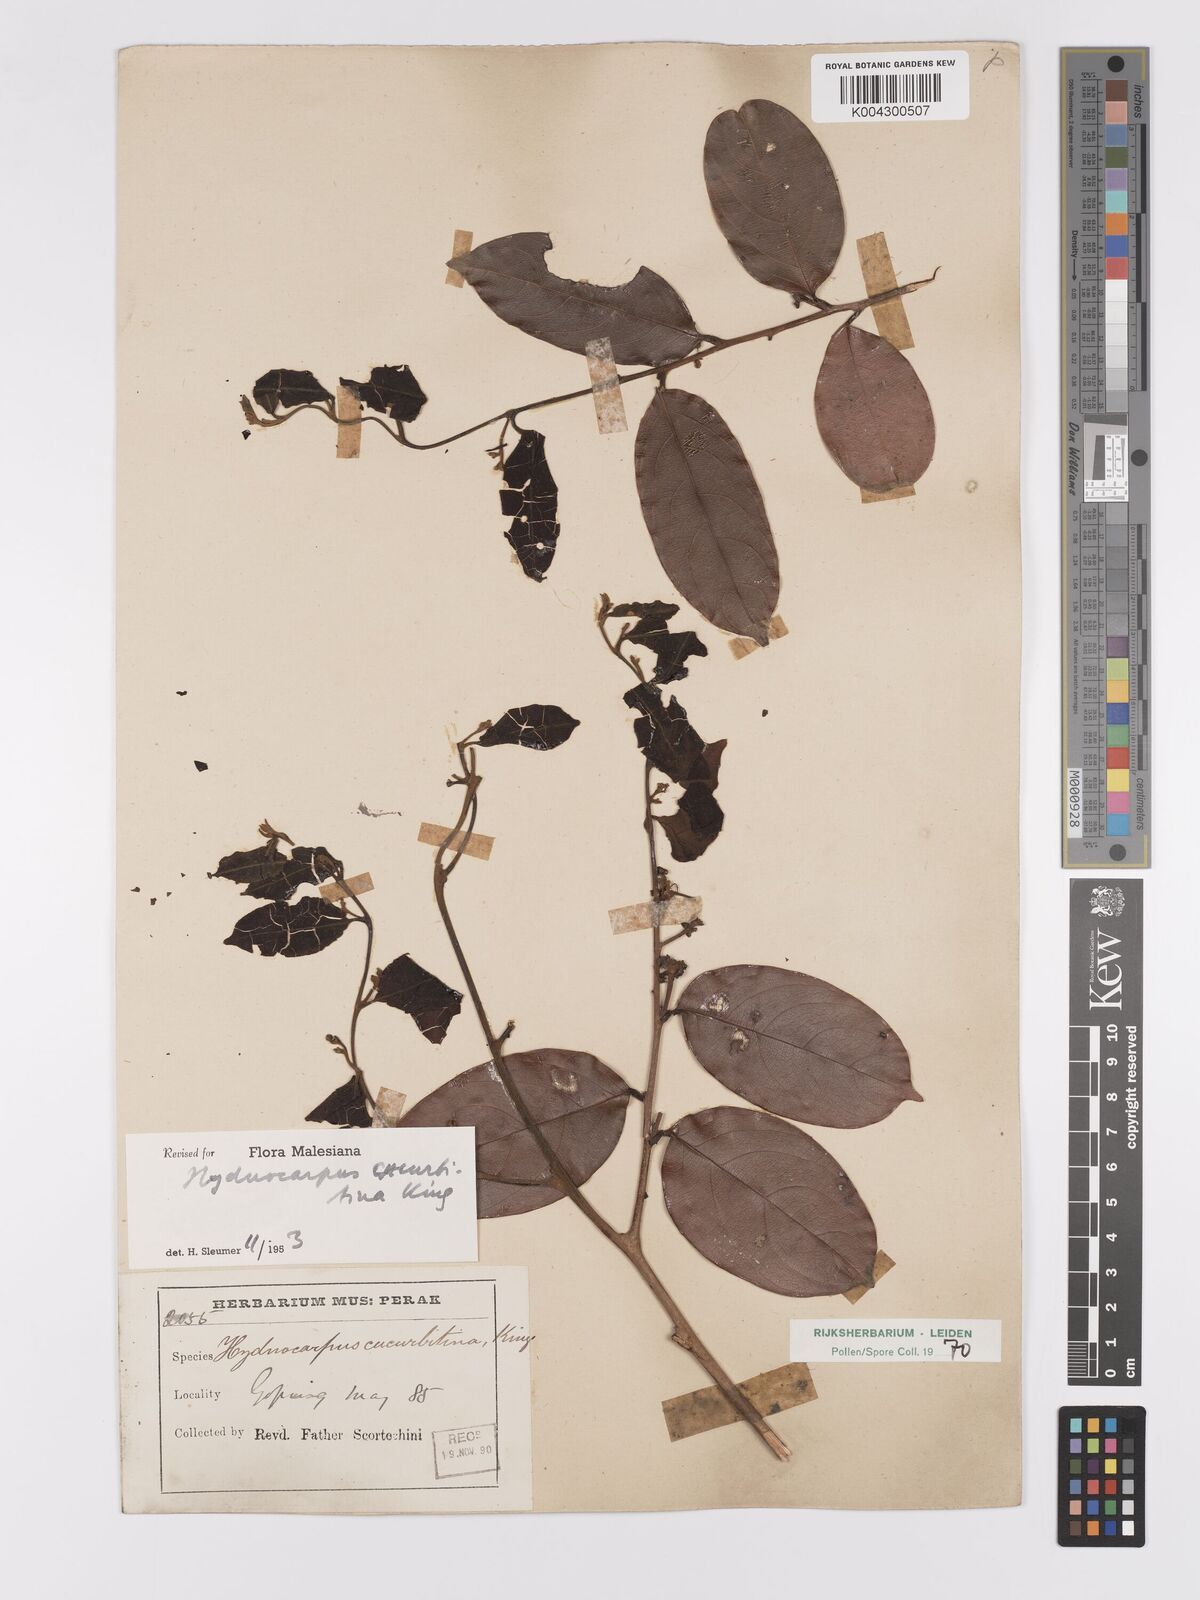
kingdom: Plantae
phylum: Tracheophyta
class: Magnoliopsida
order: Malpighiales
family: Achariaceae
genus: Hydnocarpus
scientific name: Hydnocarpus cucurbitinus
